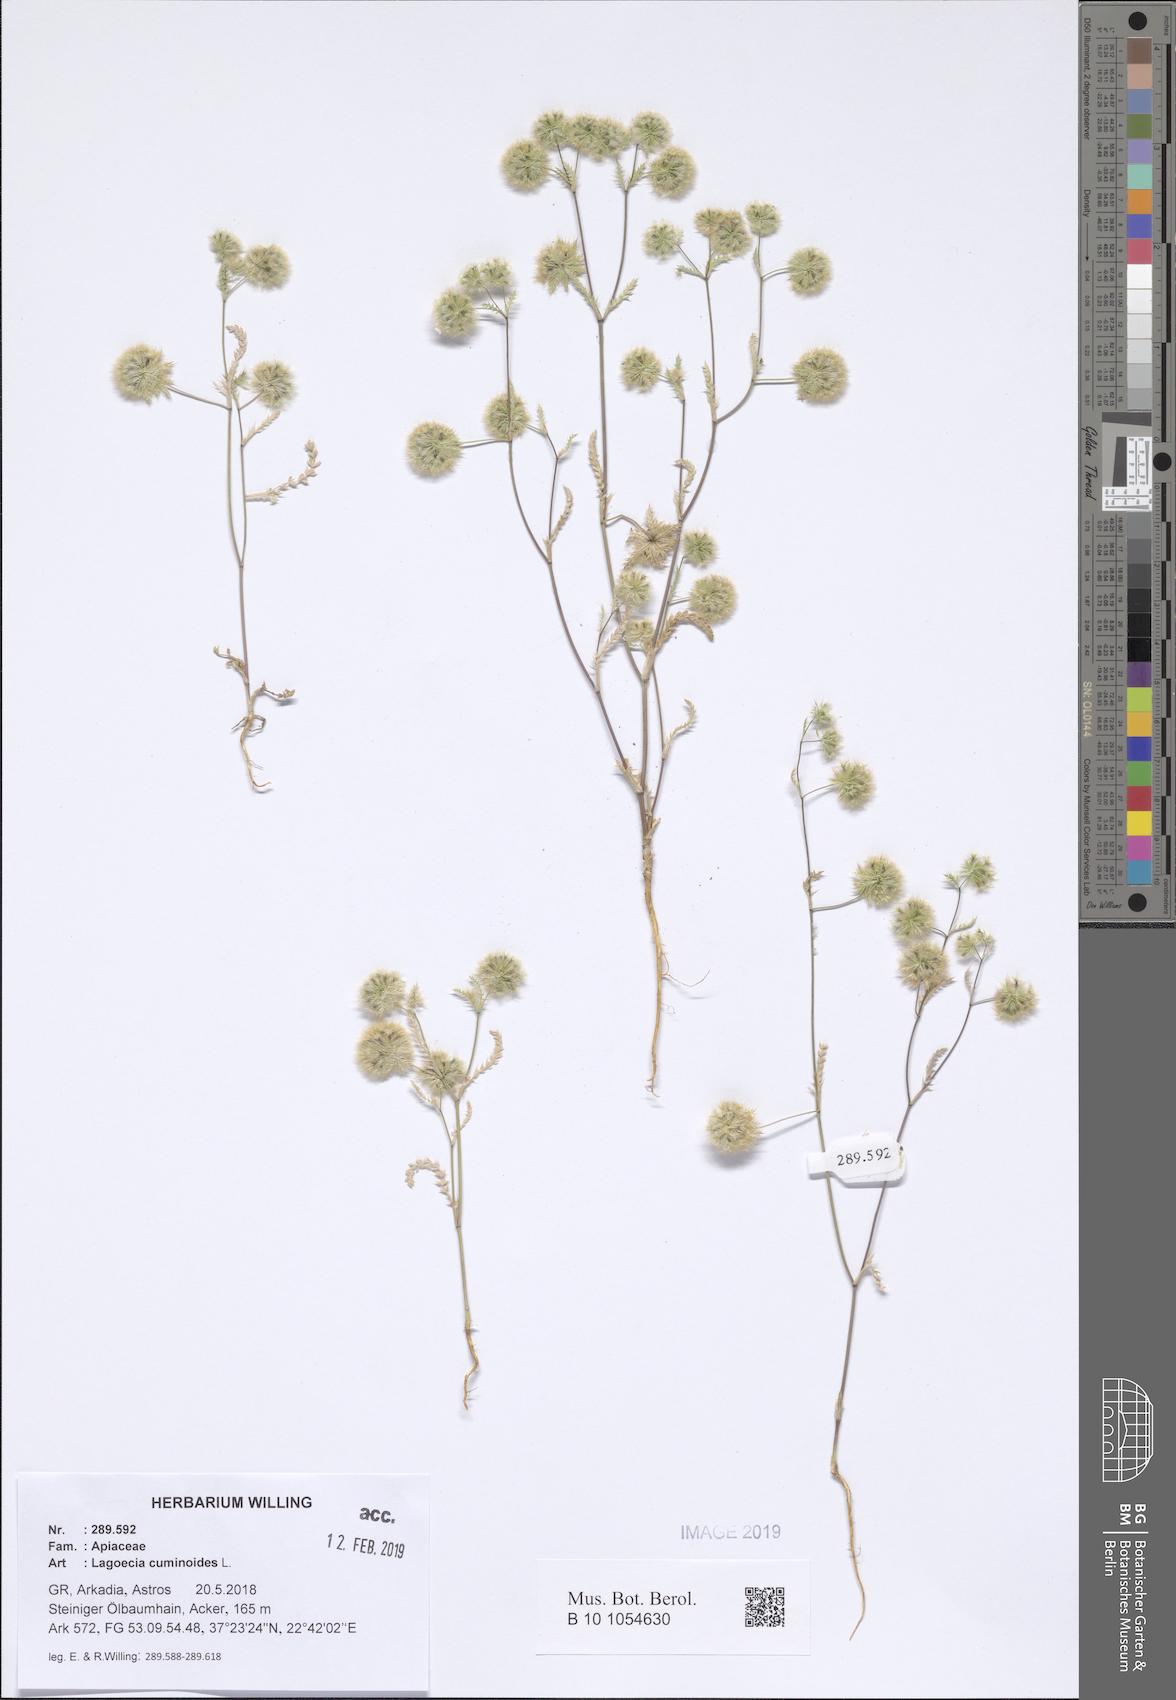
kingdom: Plantae
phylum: Tracheophyta
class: Magnoliopsida
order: Apiales
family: Apiaceae
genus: Lagoecia
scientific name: Lagoecia cuminoides
